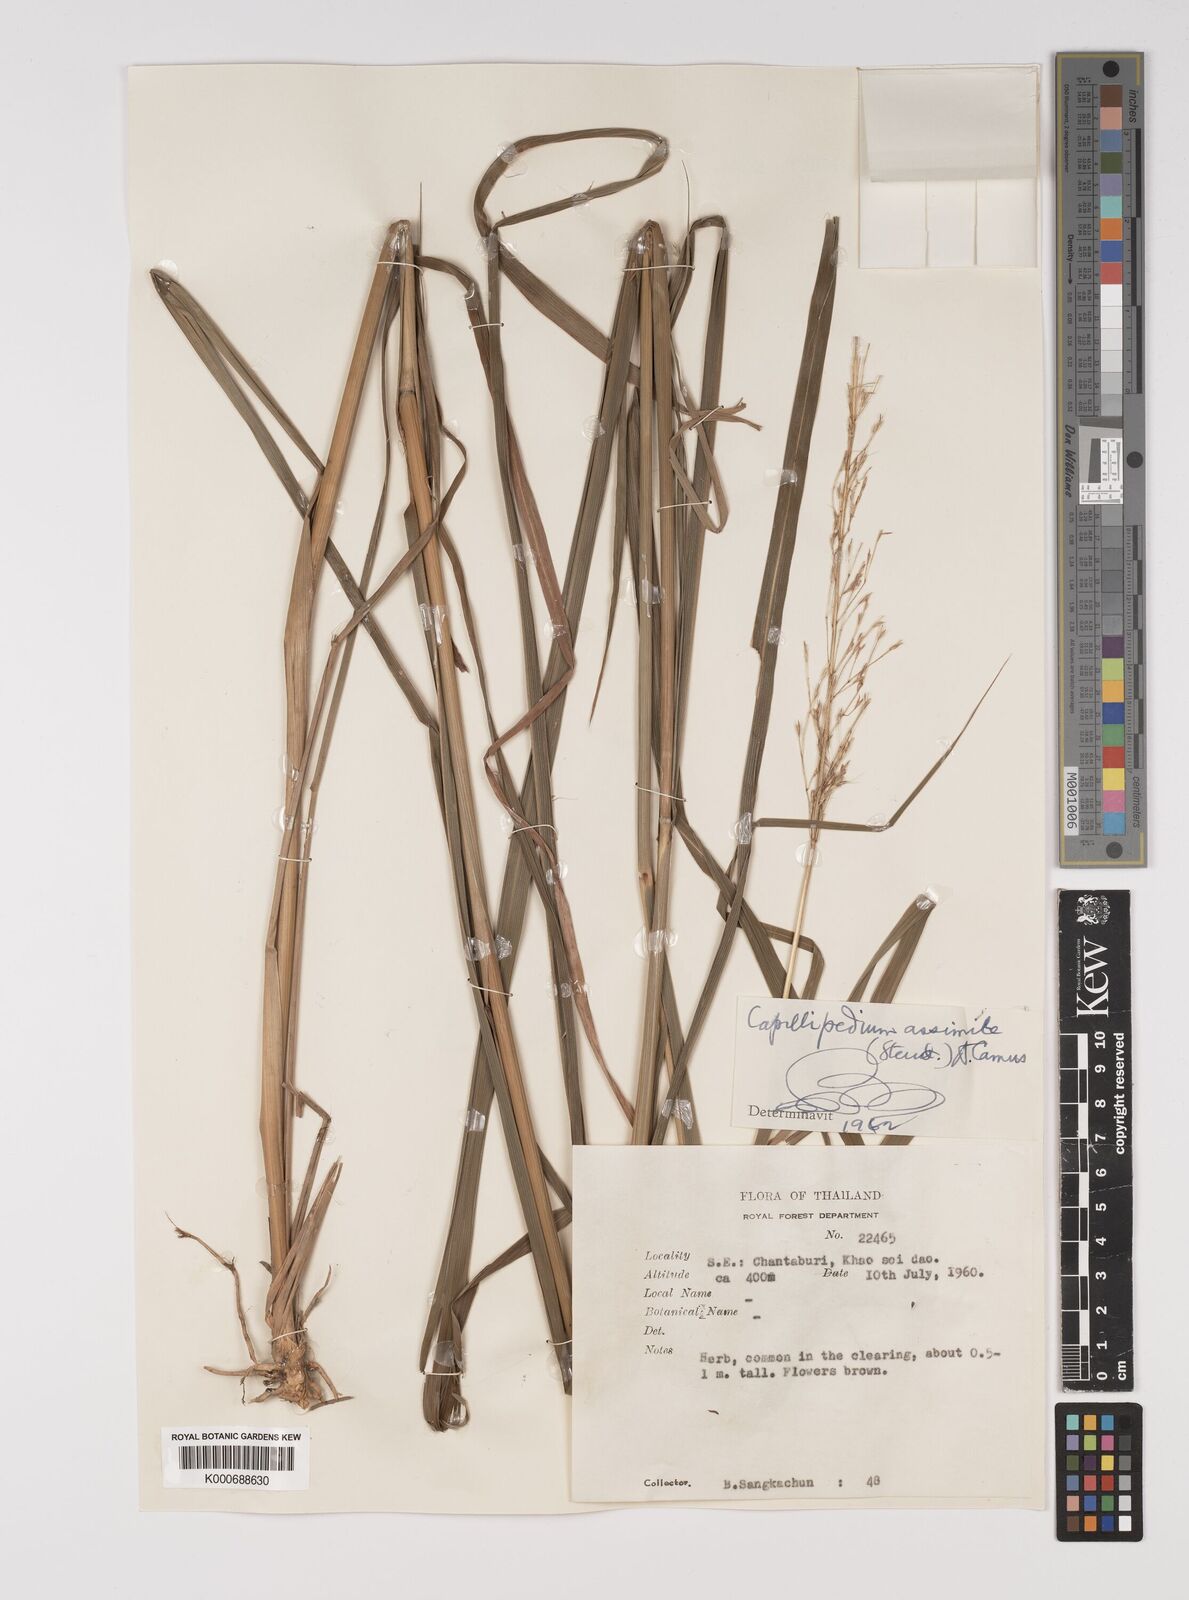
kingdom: Plantae
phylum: Tracheophyta
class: Liliopsida
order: Poales
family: Poaceae
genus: Capillipedium
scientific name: Capillipedium assimile
